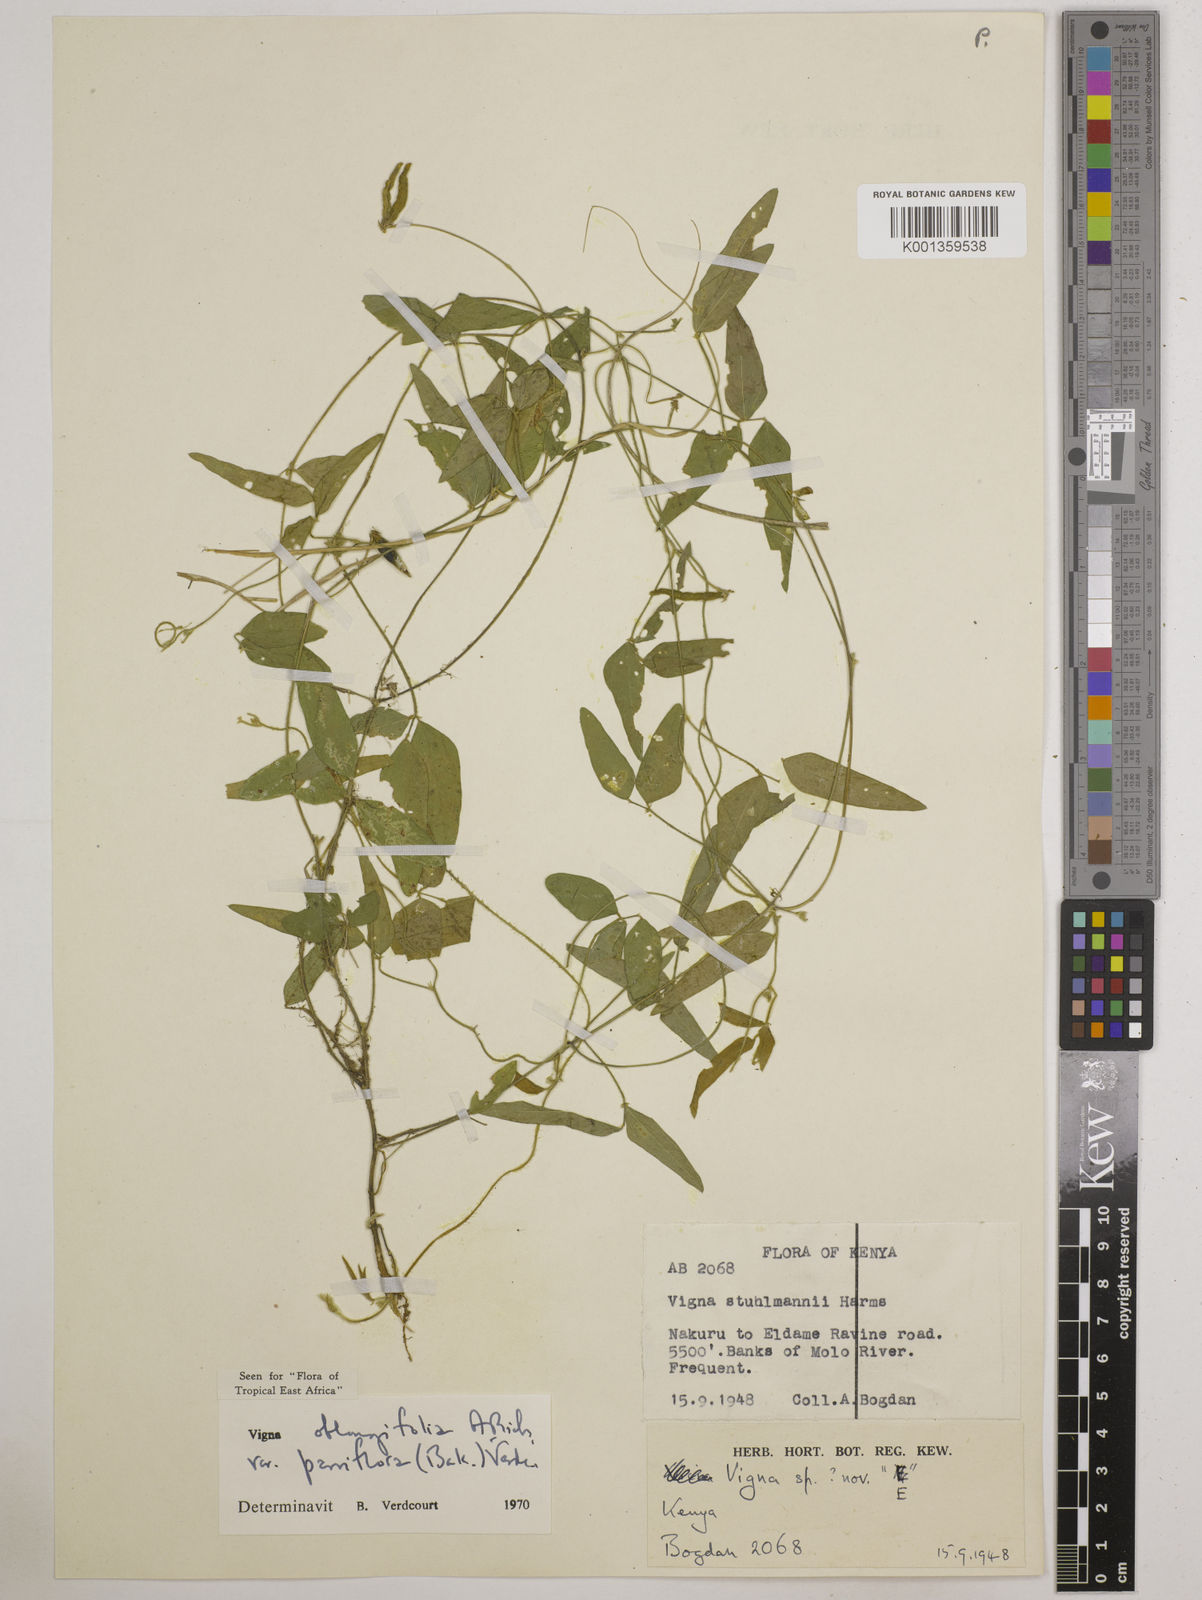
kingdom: Plantae
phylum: Tracheophyta
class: Magnoliopsida
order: Fabales
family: Fabaceae
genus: Vigna
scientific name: Vigna
